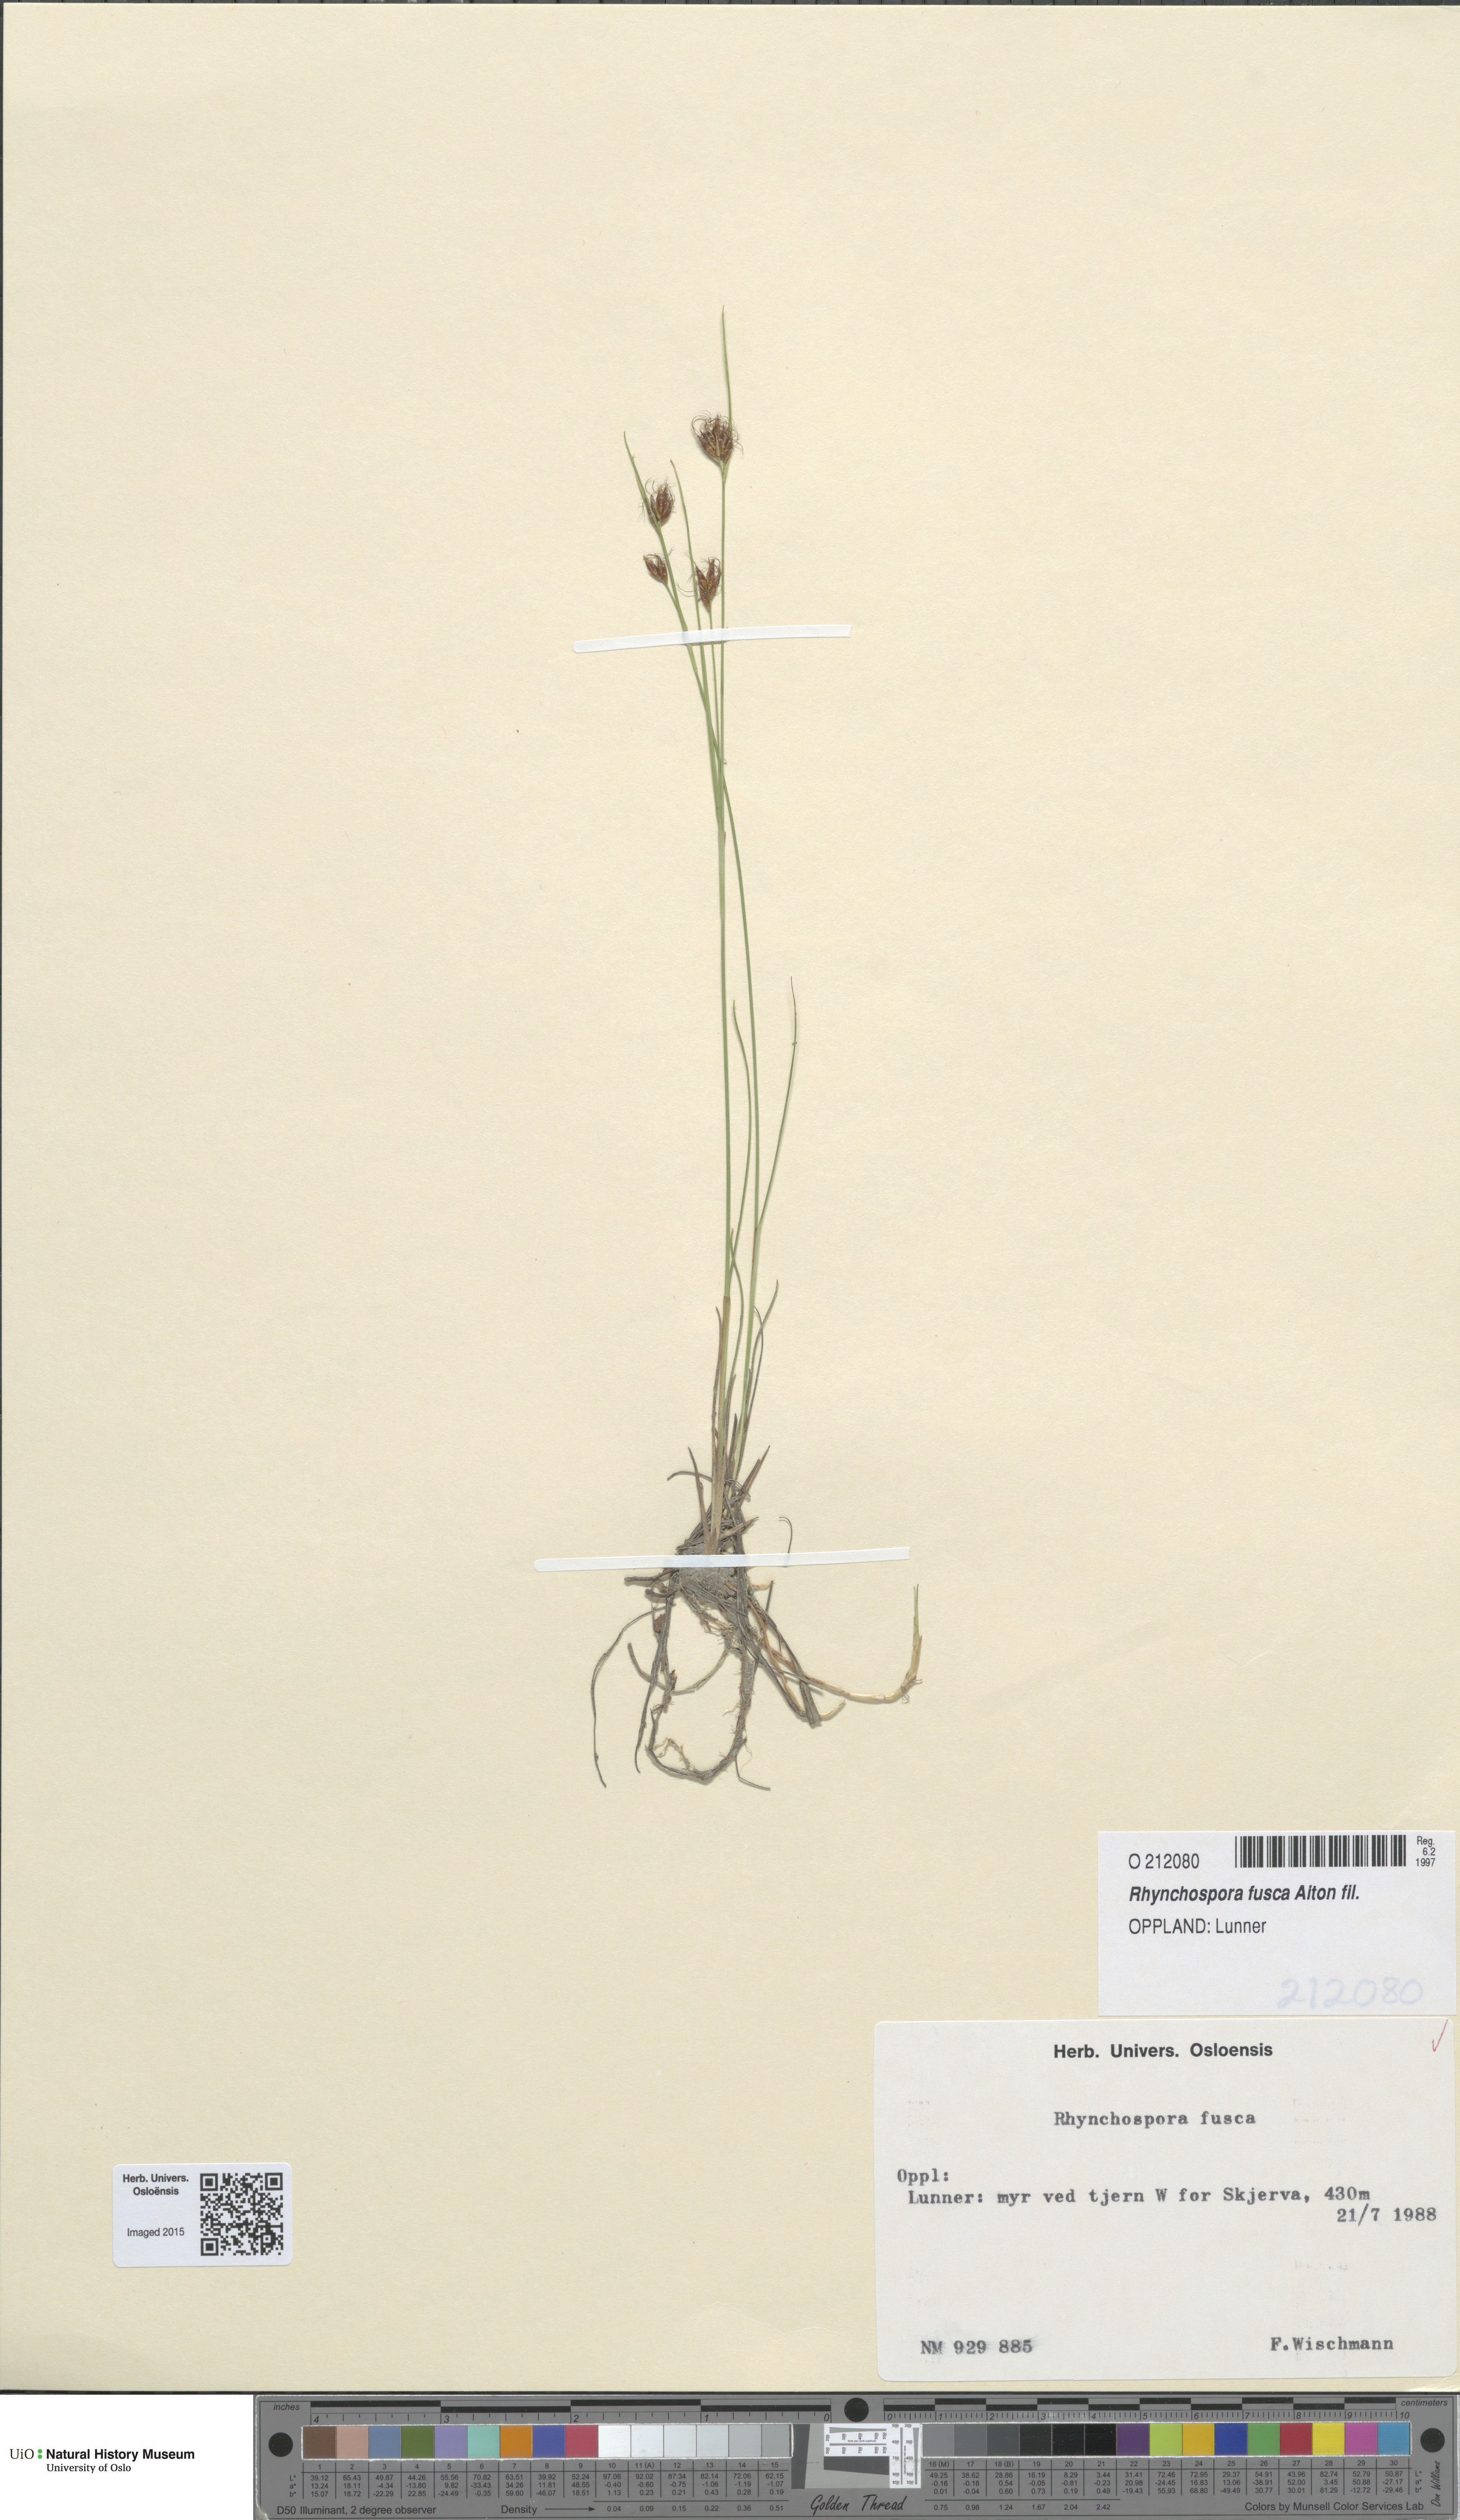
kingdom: Plantae
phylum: Tracheophyta
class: Liliopsida
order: Poales
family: Cyperaceae
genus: Rhynchospora
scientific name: Rhynchospora fusca
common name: Brown beak-sedge
